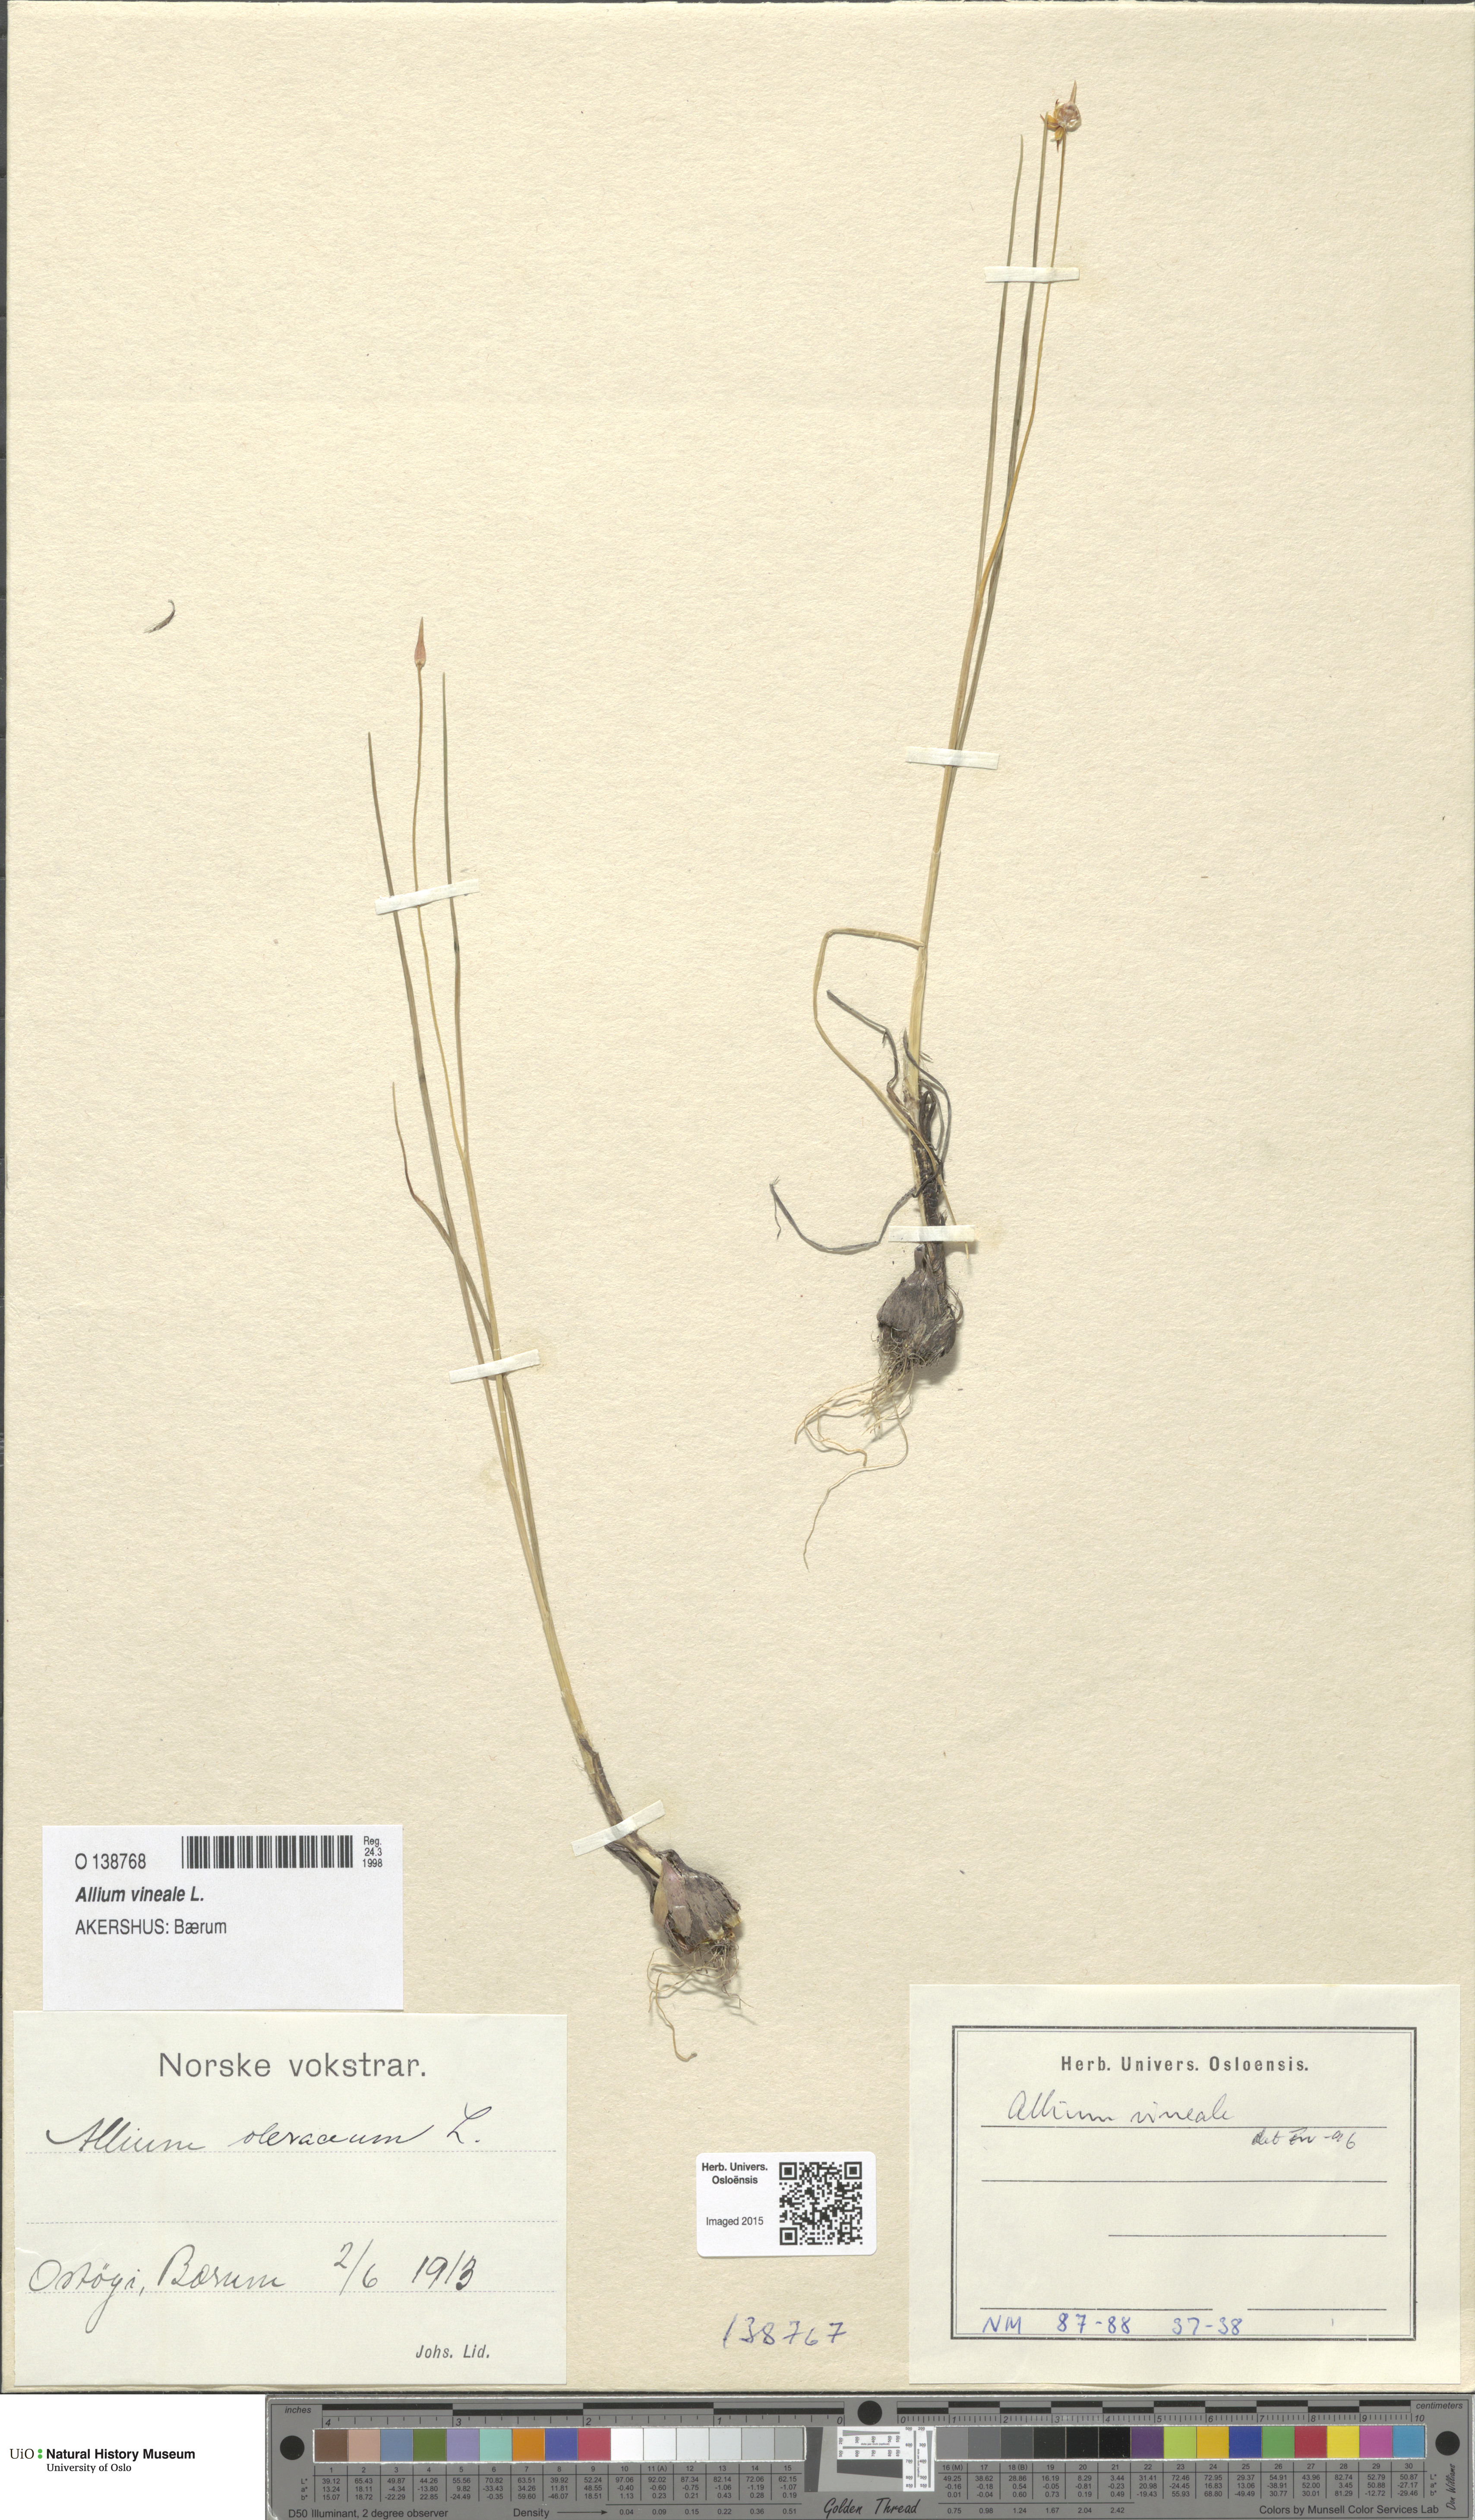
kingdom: Plantae
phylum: Tracheophyta
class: Liliopsida
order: Asparagales
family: Amaryllidaceae
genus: Allium
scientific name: Allium vineale
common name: Crow garlic
